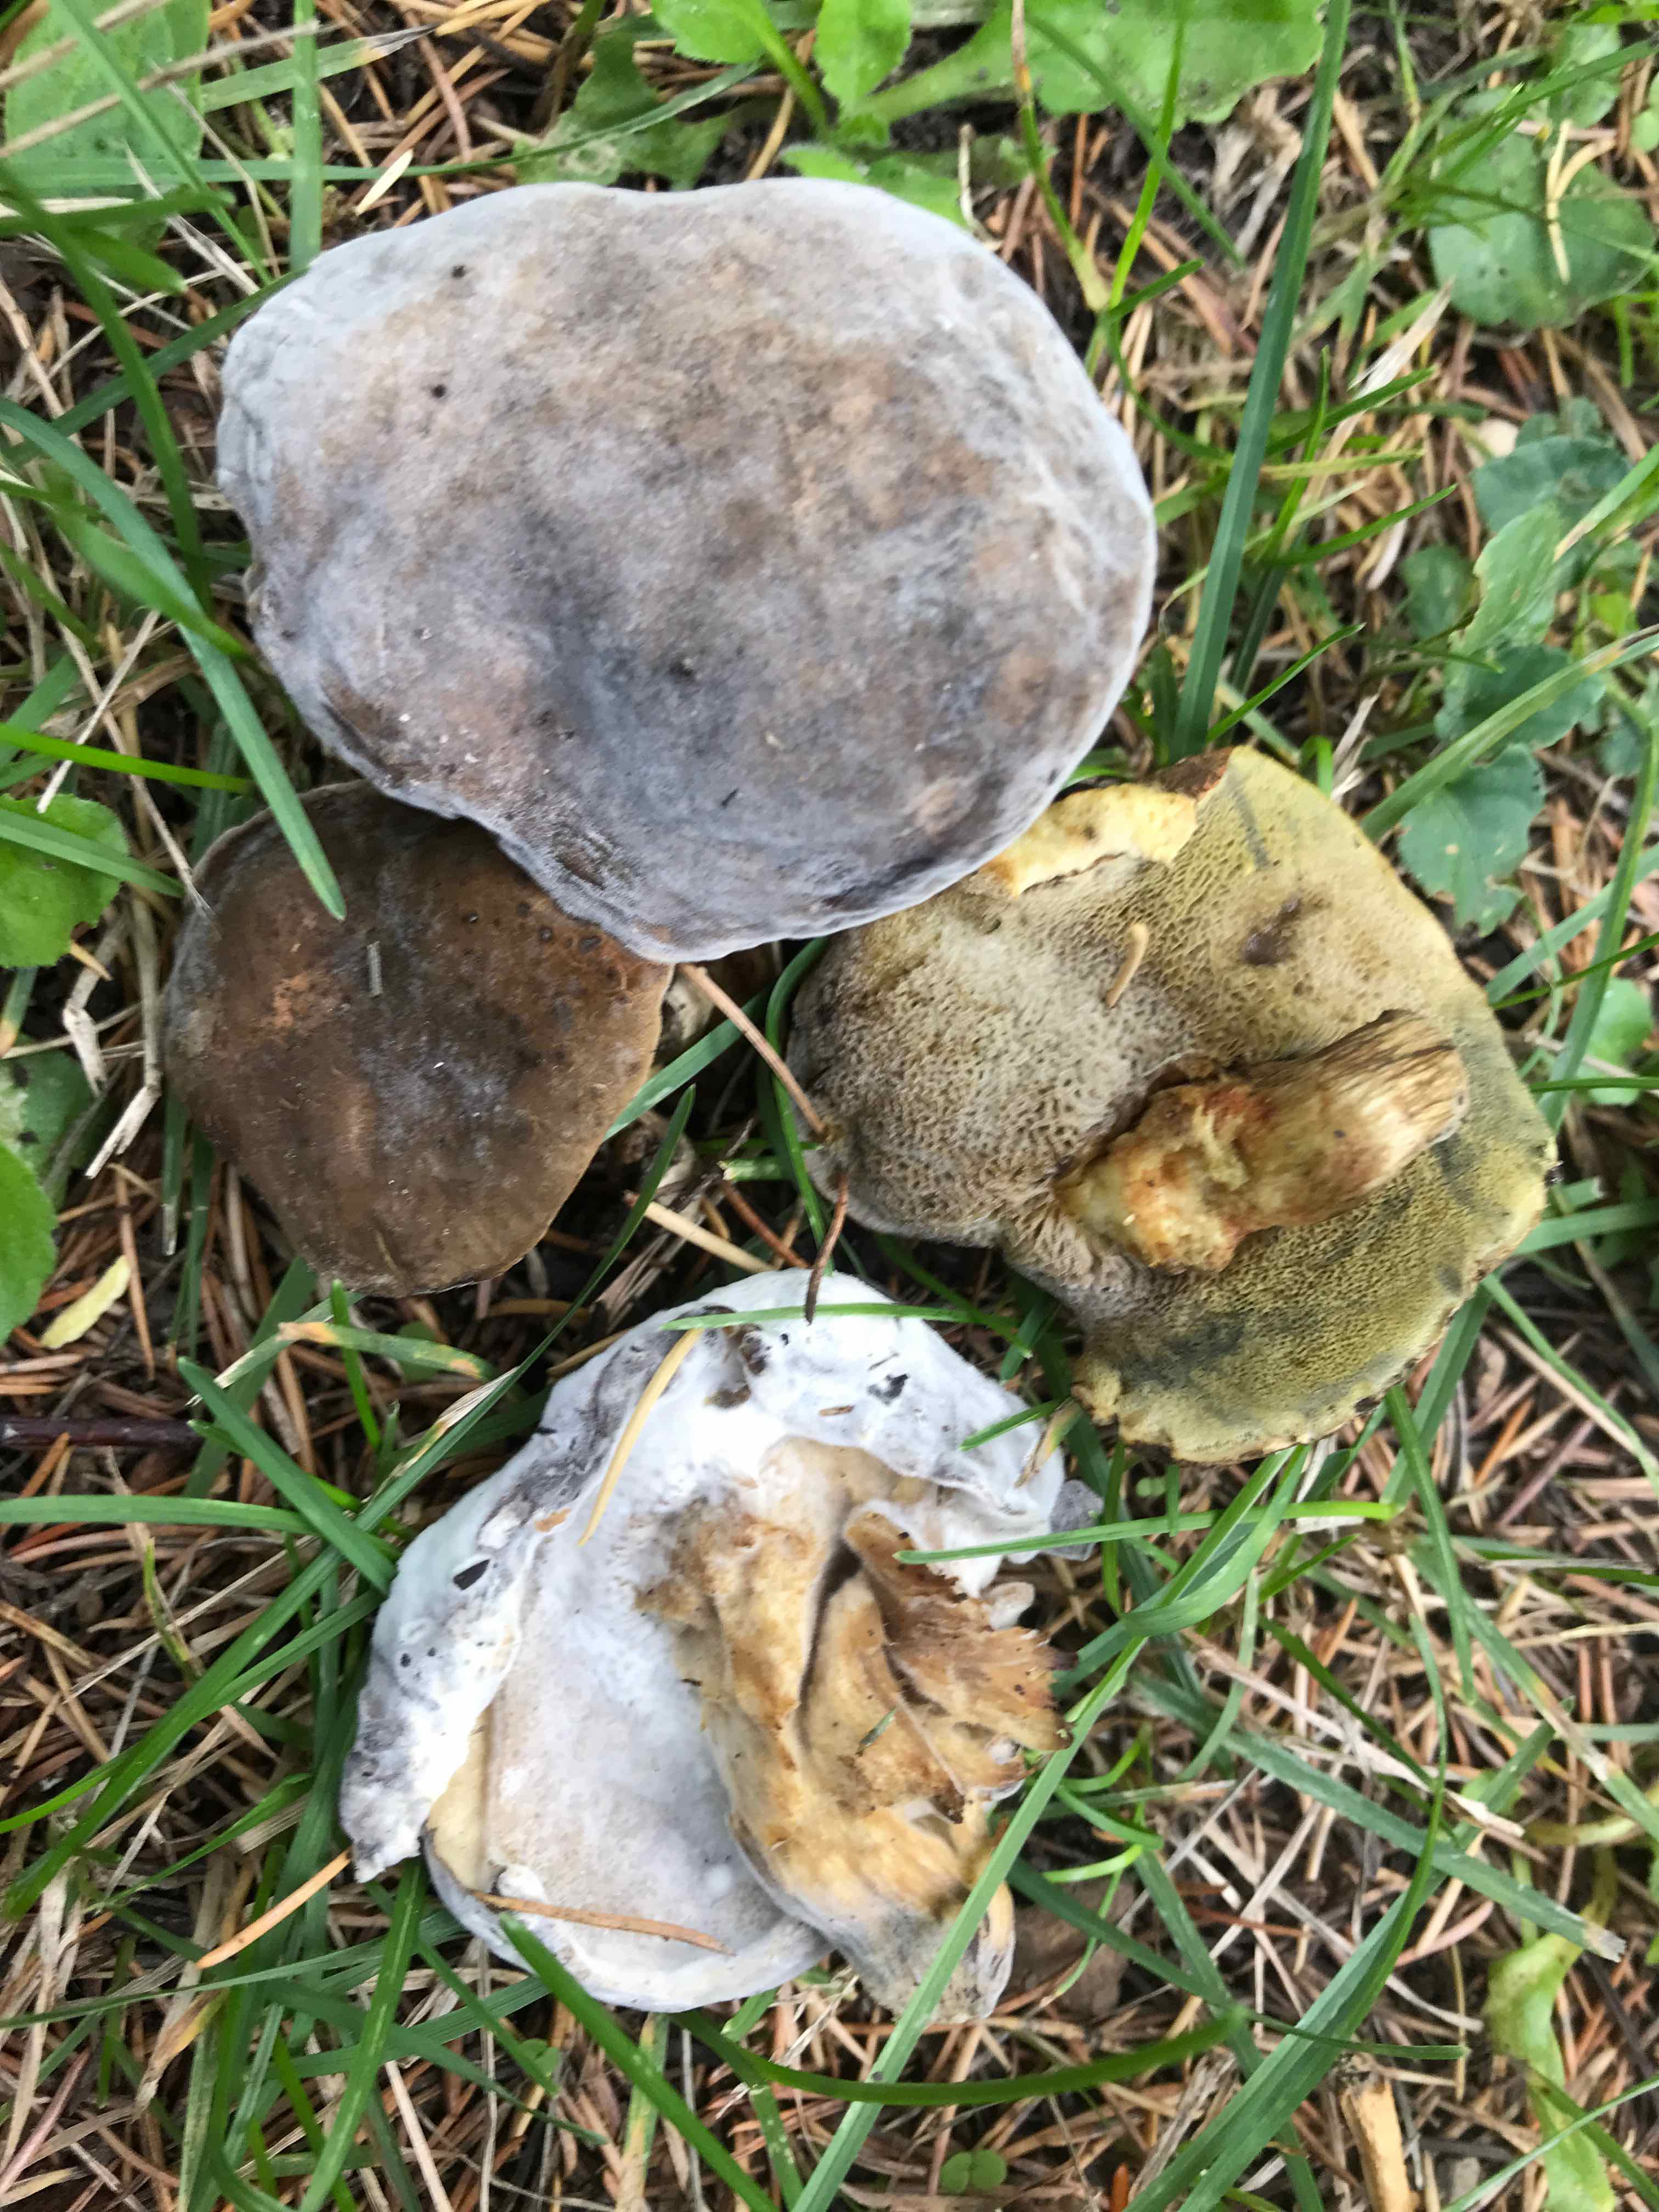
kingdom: Fungi
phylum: Ascomycota
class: Sordariomycetes
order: Hypocreales
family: Hypocreaceae
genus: Hypomyces
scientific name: Hypomyces microspermus
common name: dværgrørhat-snylteskorpe
